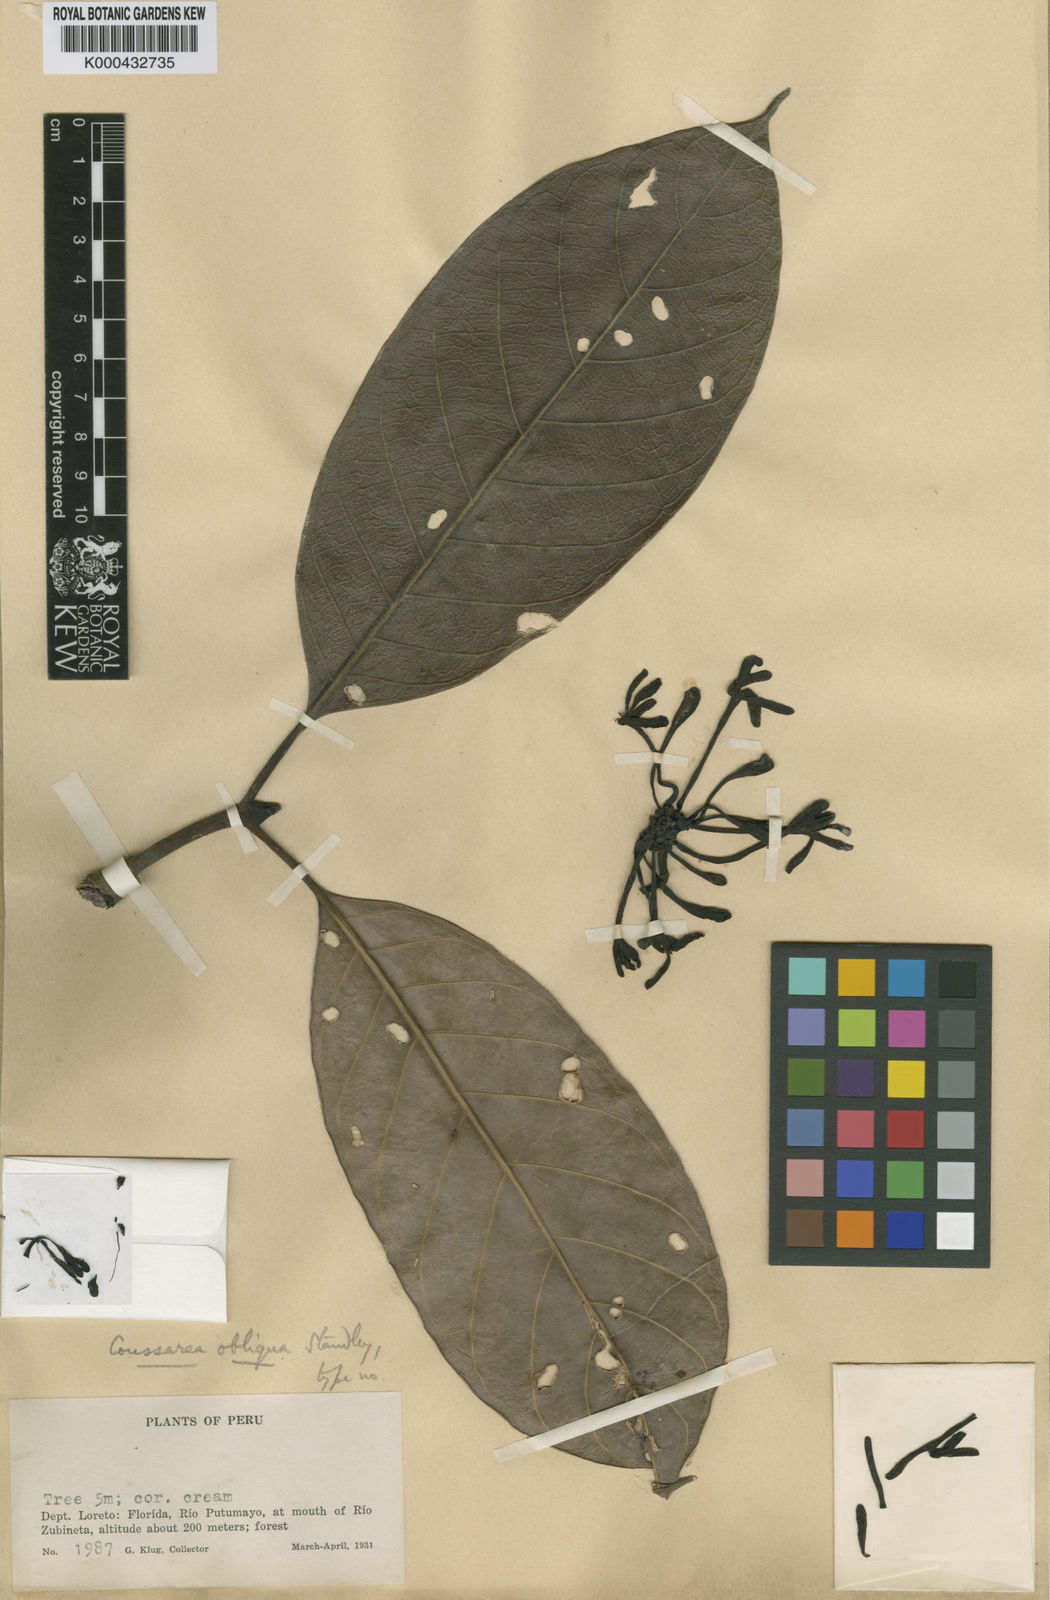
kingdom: Plantae
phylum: Tracheophyta
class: Magnoliopsida
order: Gentianales
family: Rubiaceae
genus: Coussarea
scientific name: Coussarea obliqua
